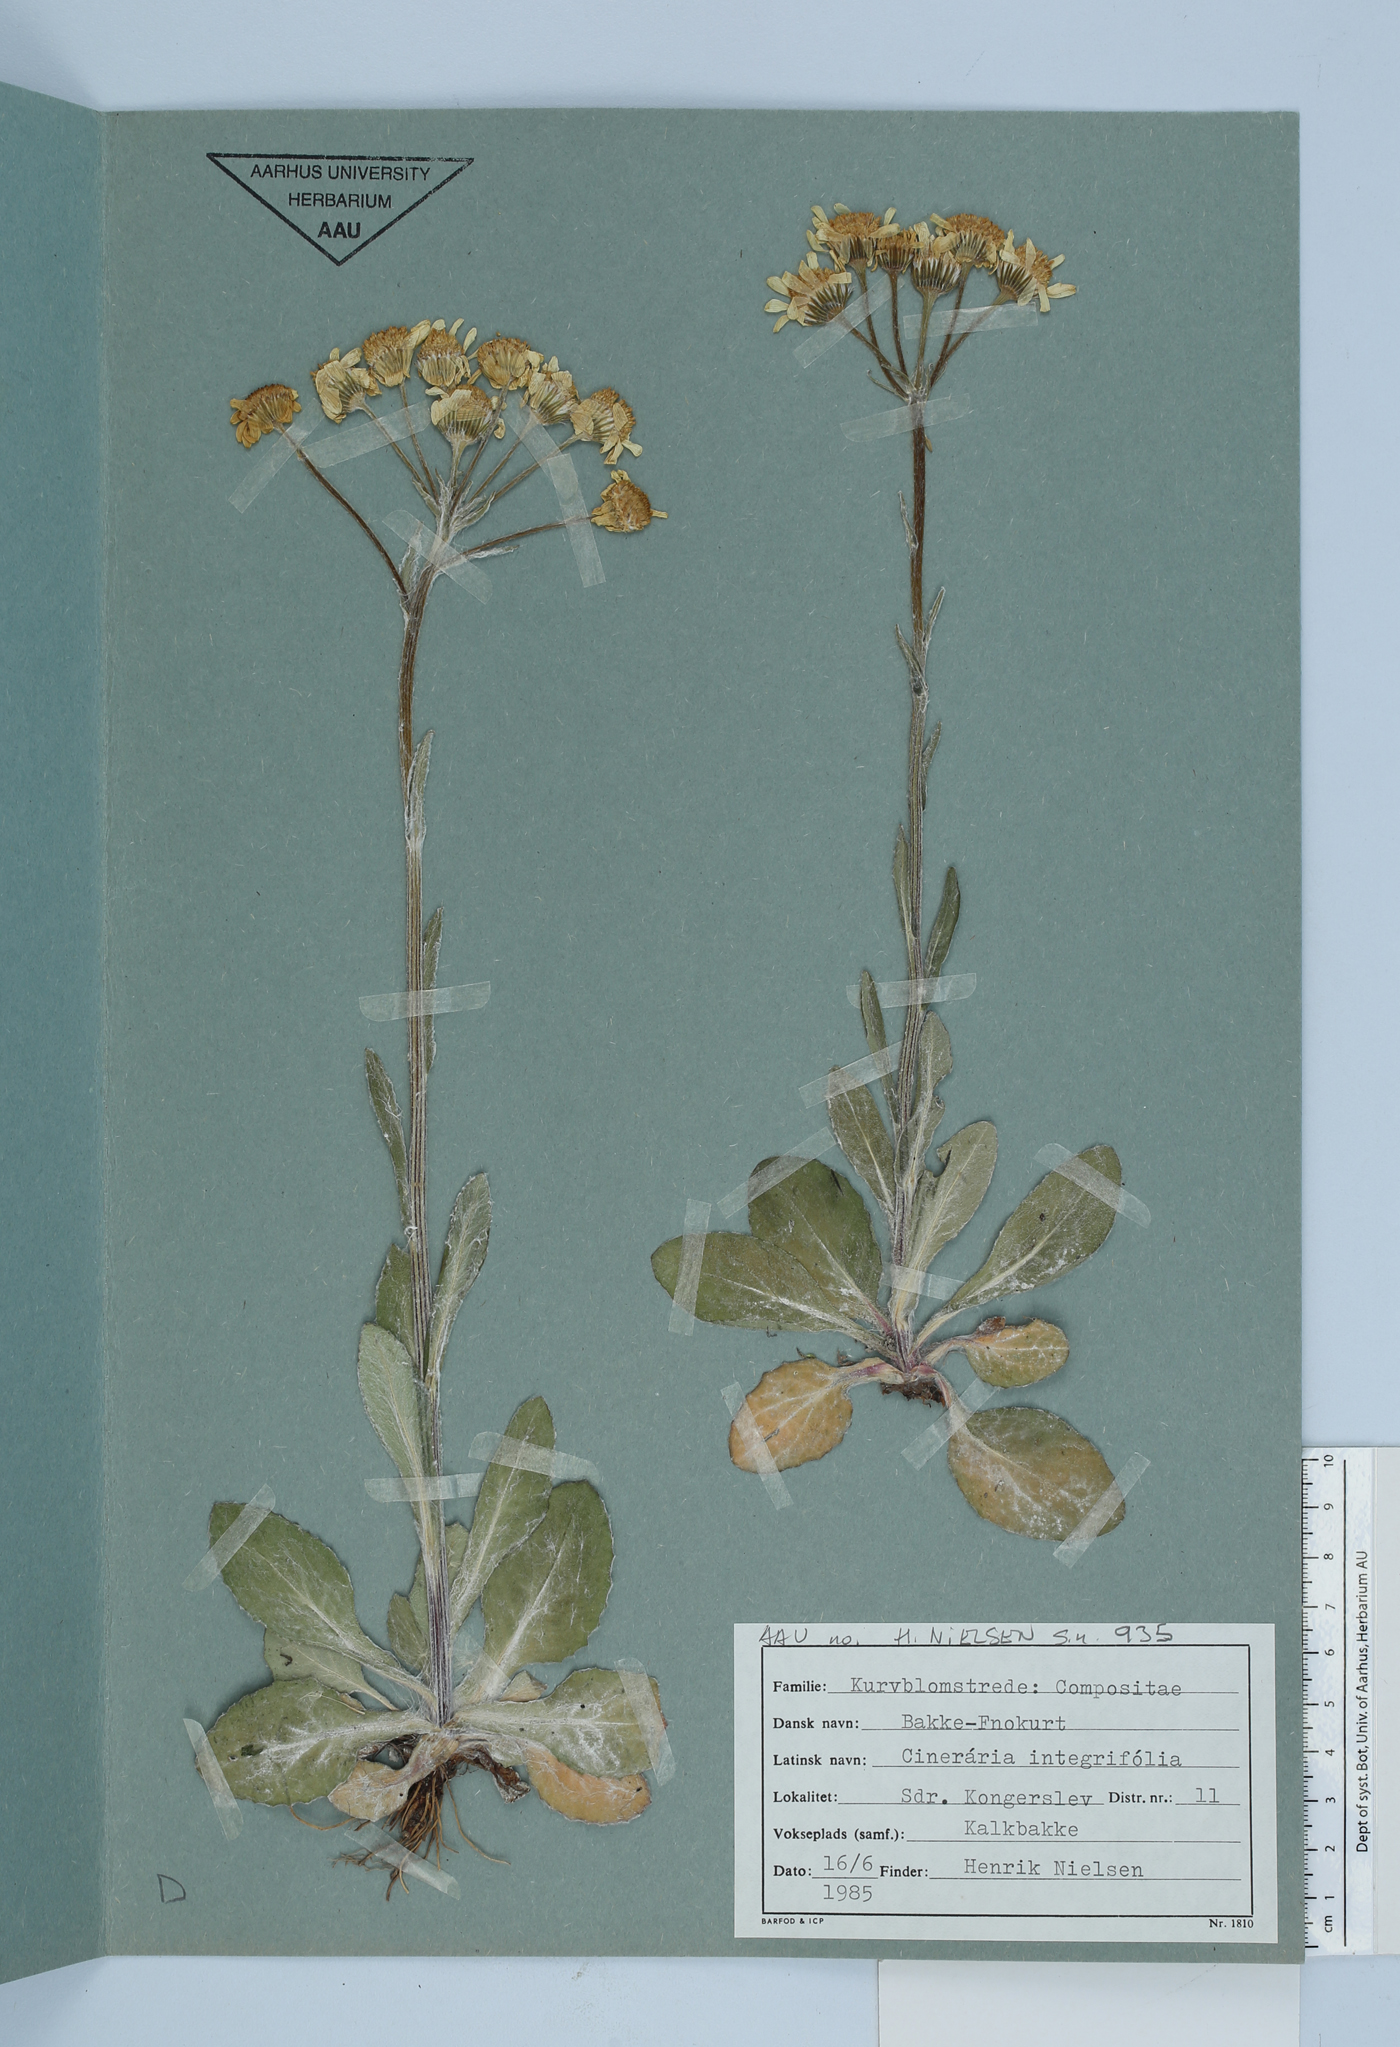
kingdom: Plantae
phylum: Tracheophyta
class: Magnoliopsida
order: Asterales
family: Asteraceae
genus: Tephroseris
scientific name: Tephroseris integrifolia
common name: Field fleawort
